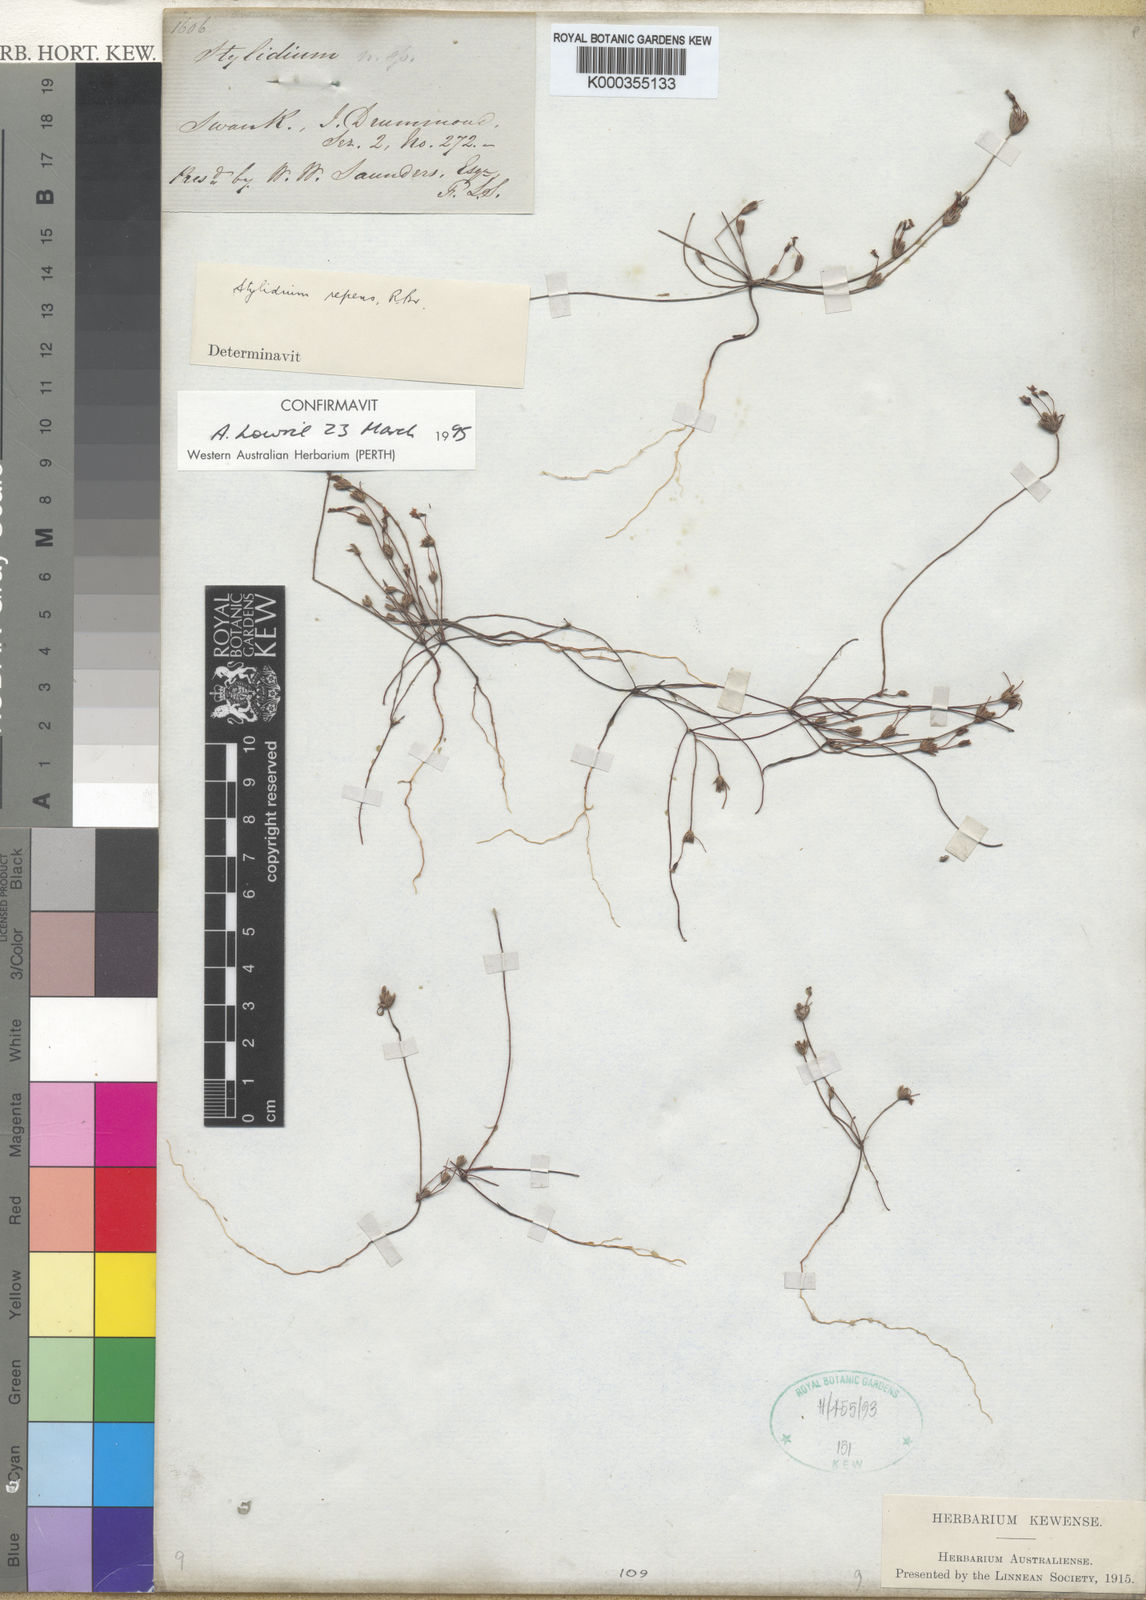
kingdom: Plantae
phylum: Tracheophyta
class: Magnoliopsida
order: Asterales
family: Stylidiaceae
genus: Stylidium
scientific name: Stylidium repens
